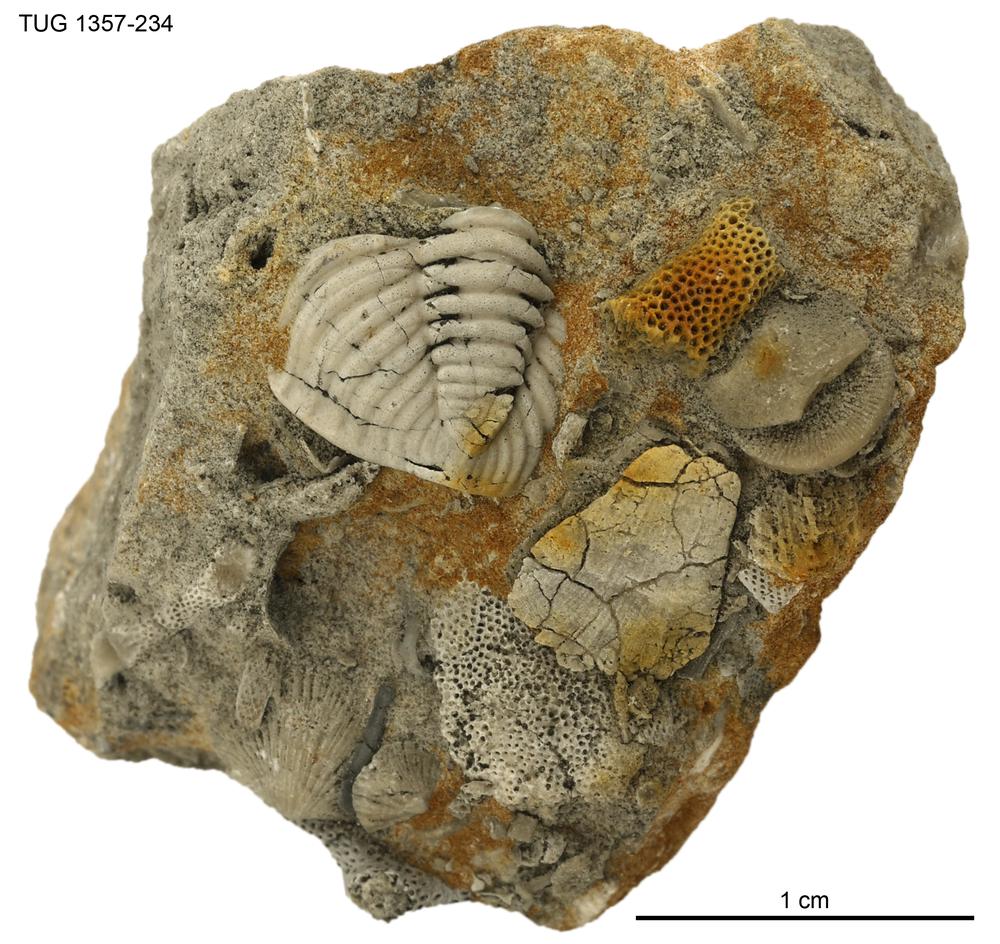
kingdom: Animalia
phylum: Arthropoda
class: Trilobita
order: Phacopida
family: Pterygometopidae
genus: Chasmops
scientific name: Chasmops
